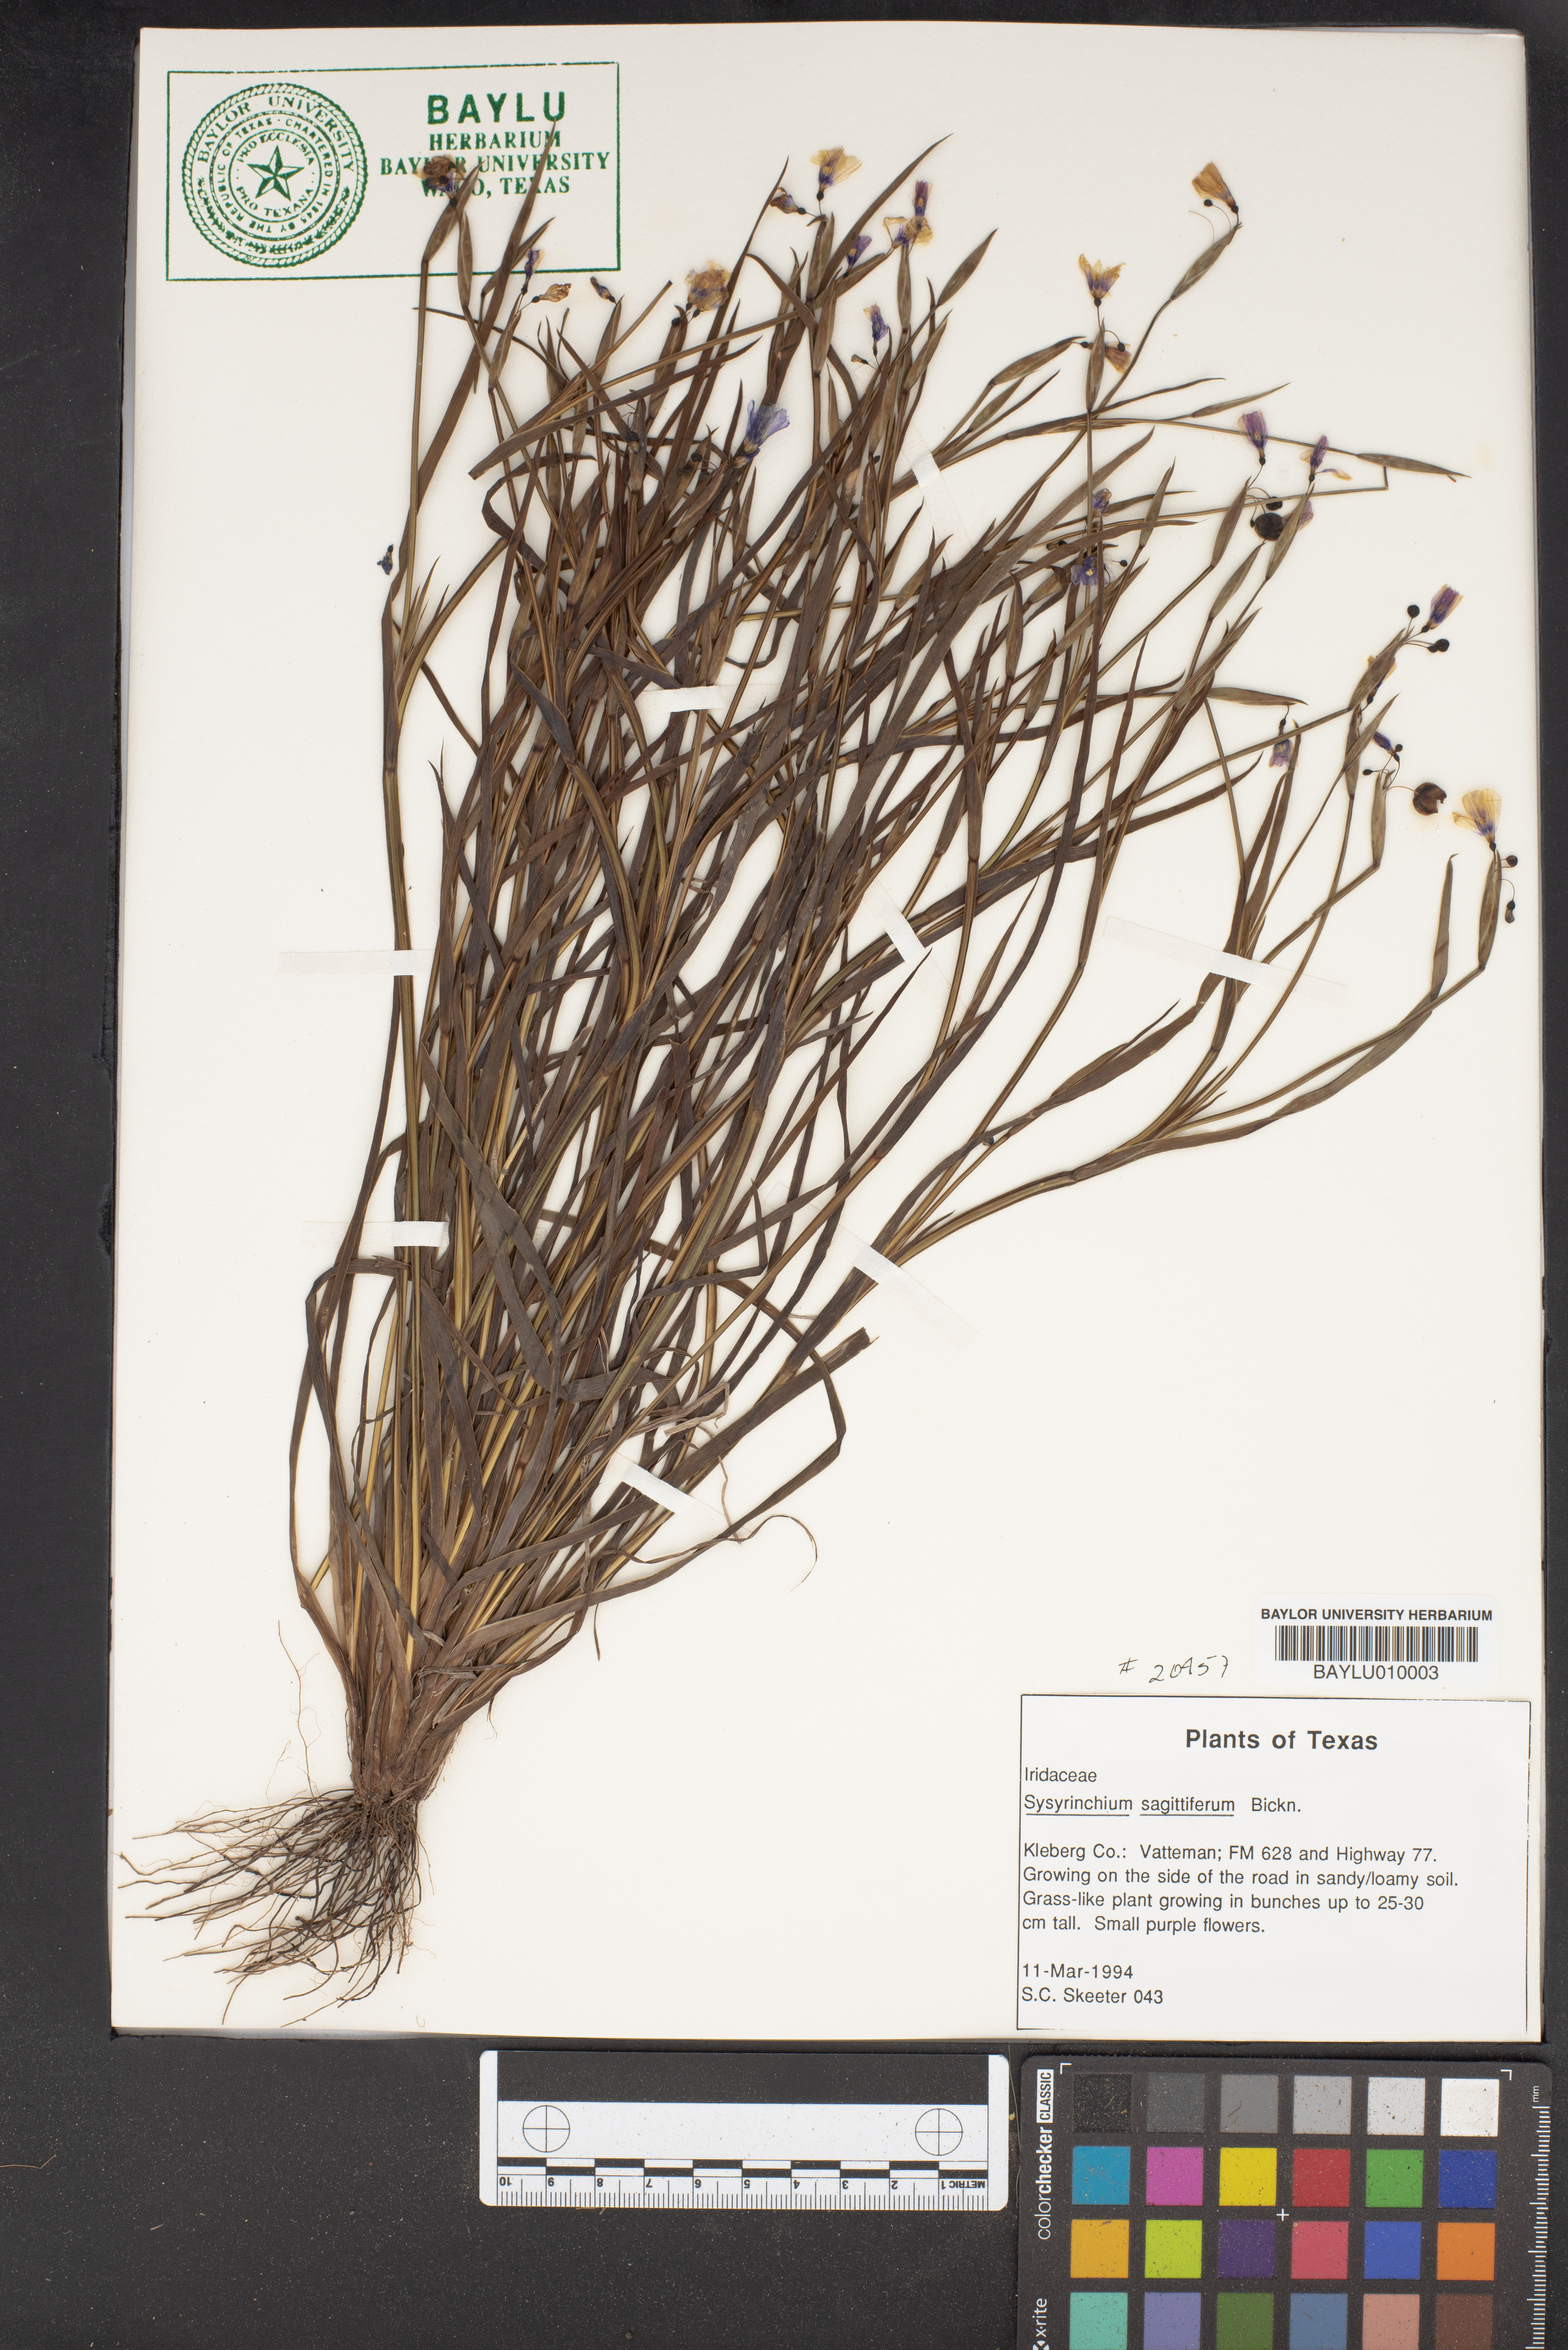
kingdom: Plantae
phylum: Tracheophyta
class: Liliopsida
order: Asparagales
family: Iridaceae
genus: Sisyrinchium
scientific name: Sisyrinchium sagittiferum
